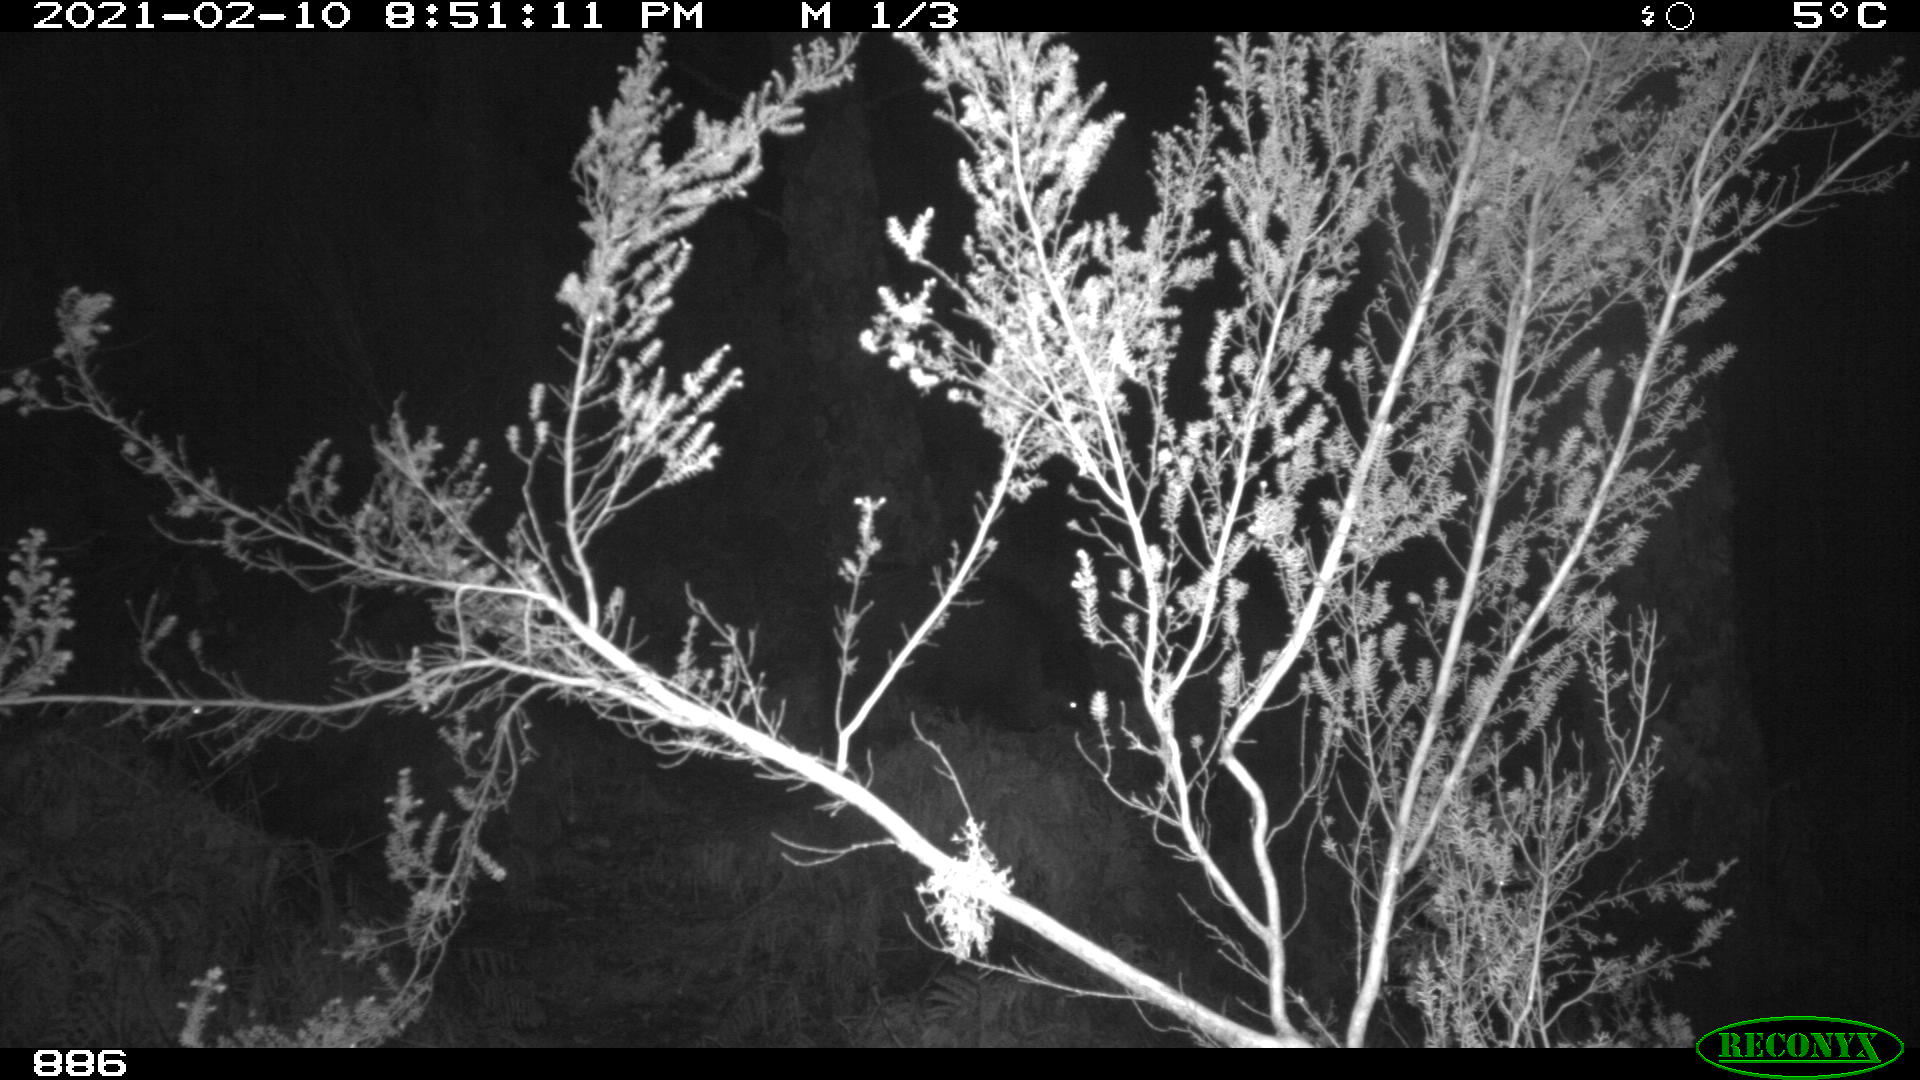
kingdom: Animalia
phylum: Chordata
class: Mammalia
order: Artiodactyla
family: Suidae
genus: Sus
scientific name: Sus scrofa
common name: Wild boar
